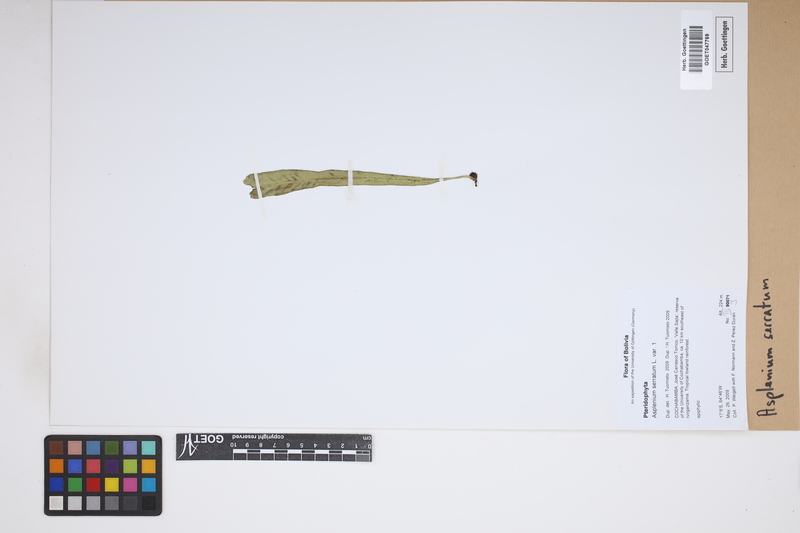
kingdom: Plantae
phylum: Tracheophyta
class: Polypodiopsida
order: Polypodiales
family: Aspleniaceae
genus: Asplenium
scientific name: Asplenium serratum
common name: Wild birdnest fern
